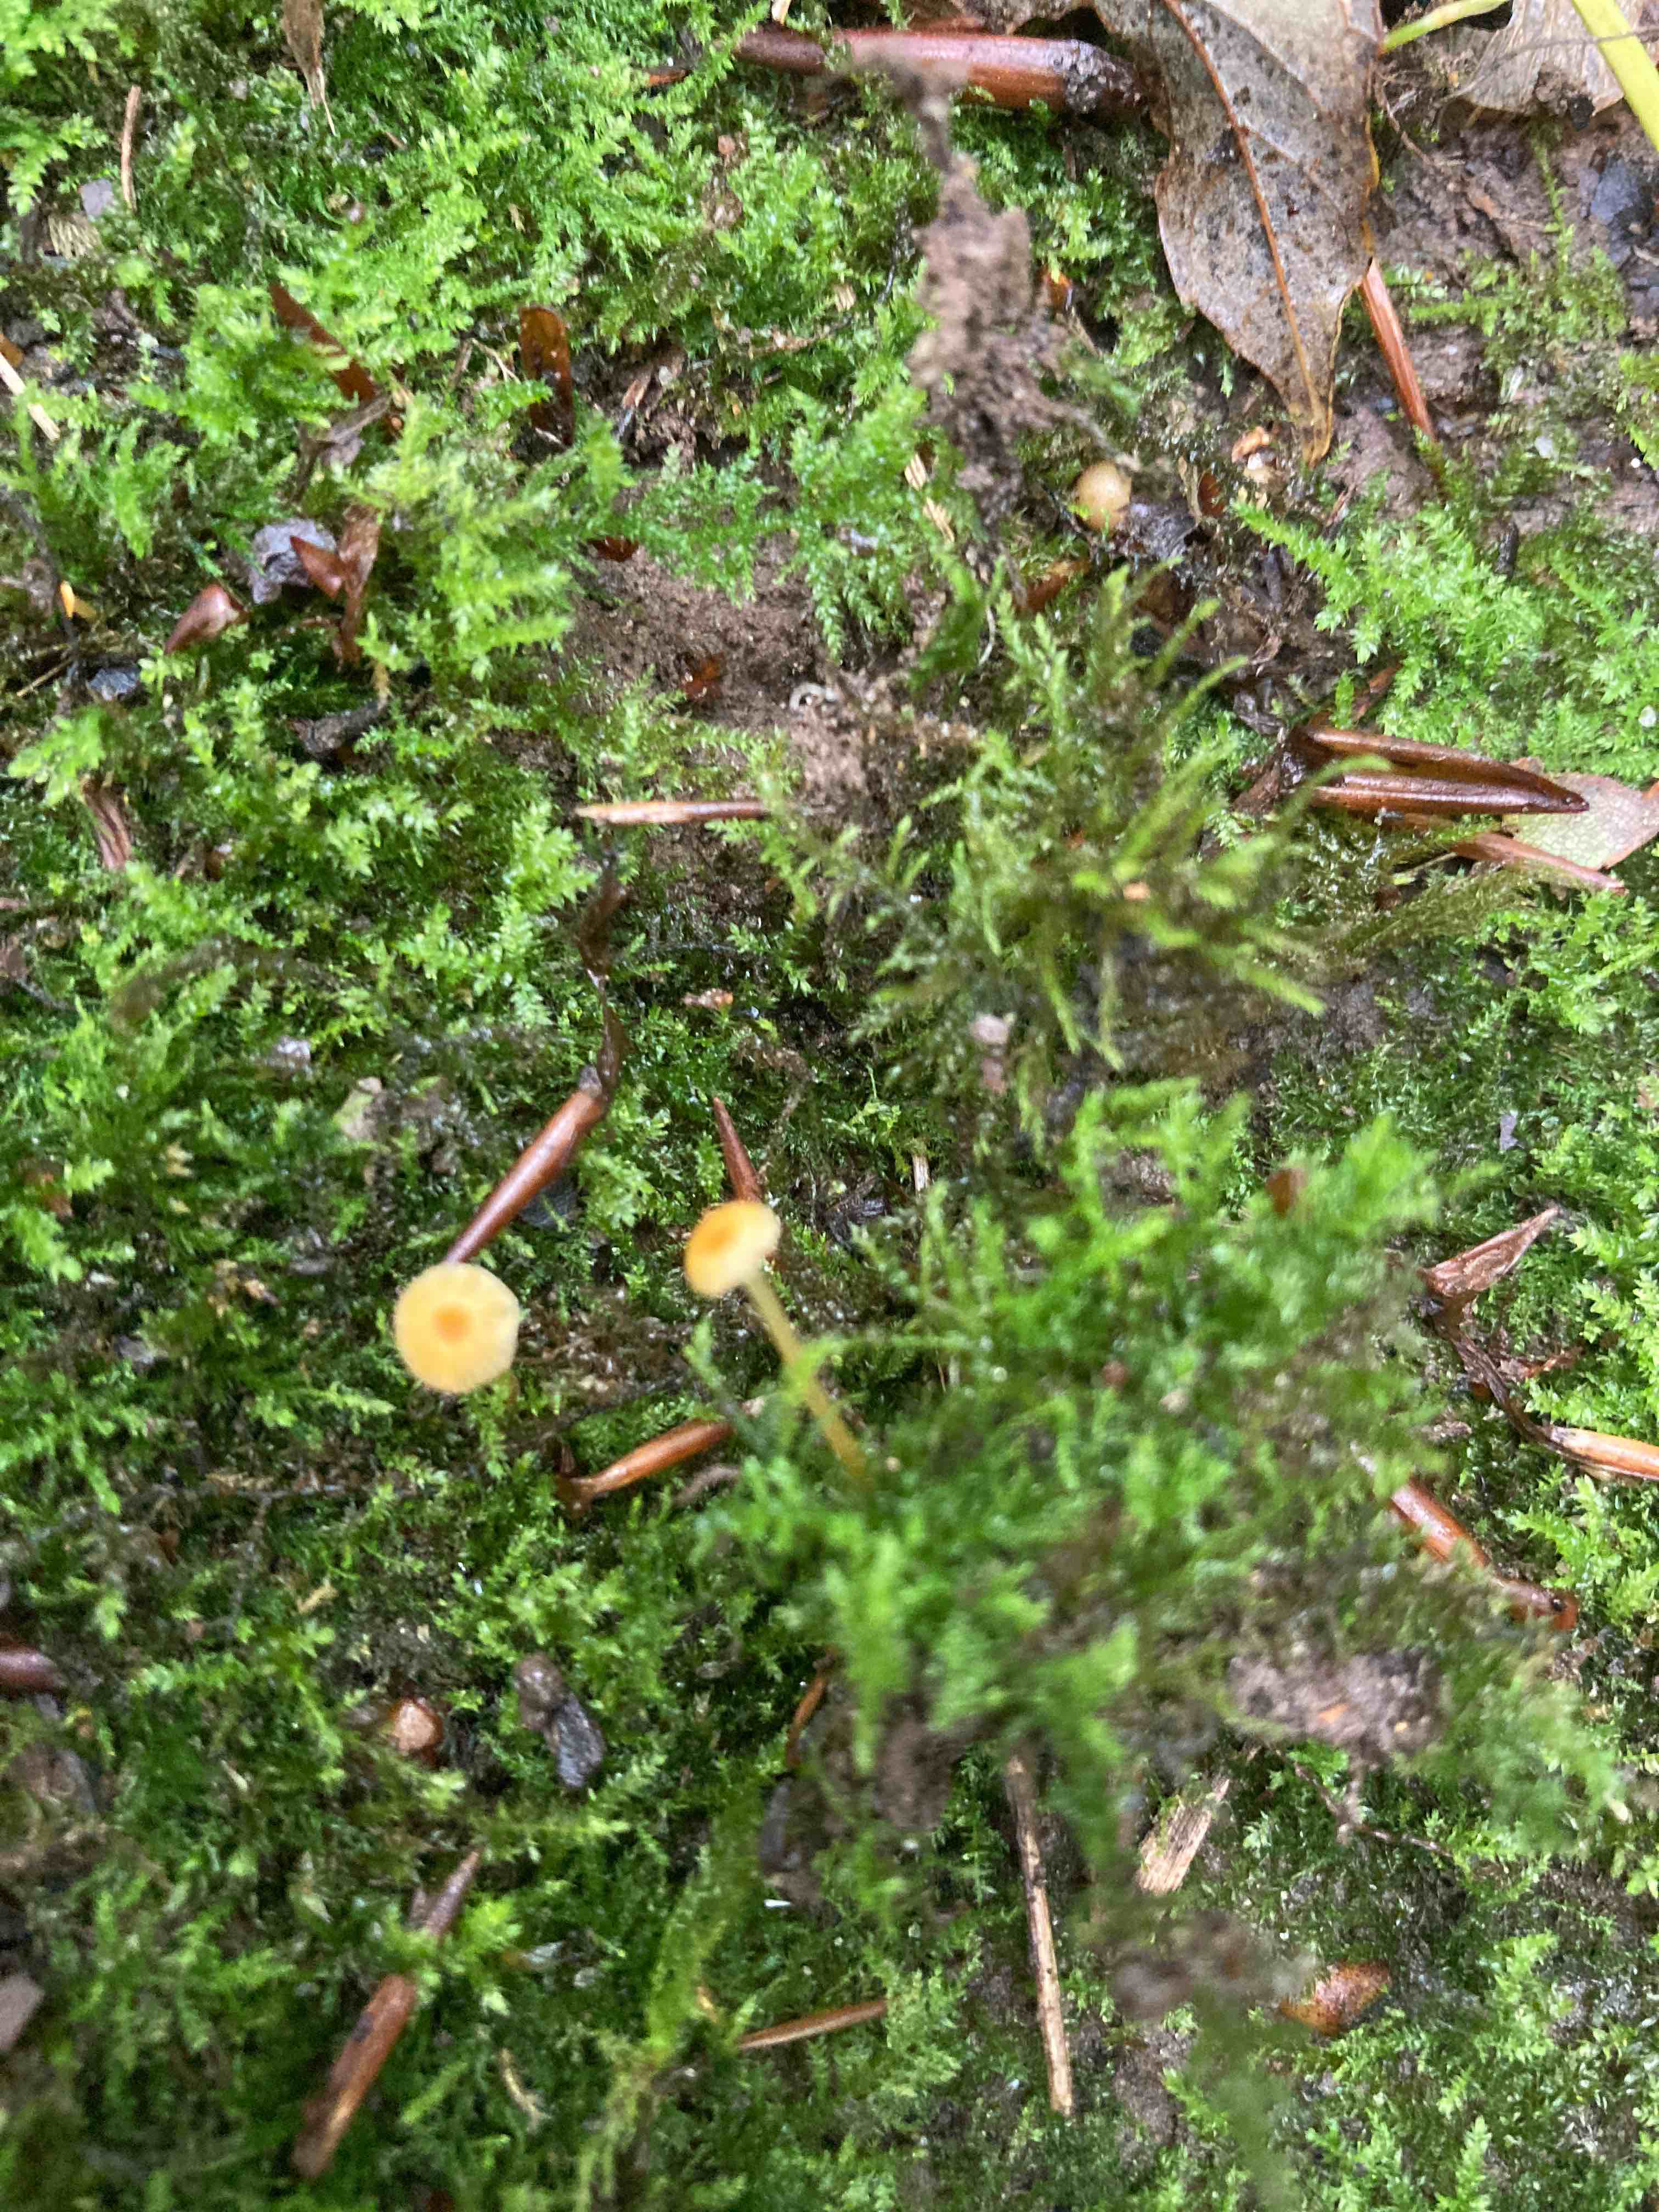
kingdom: Fungi
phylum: Basidiomycota
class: Agaricomycetes
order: Hymenochaetales
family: Rickenellaceae
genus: Rickenella
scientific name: Rickenella fibula
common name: orange mosnavlehat
